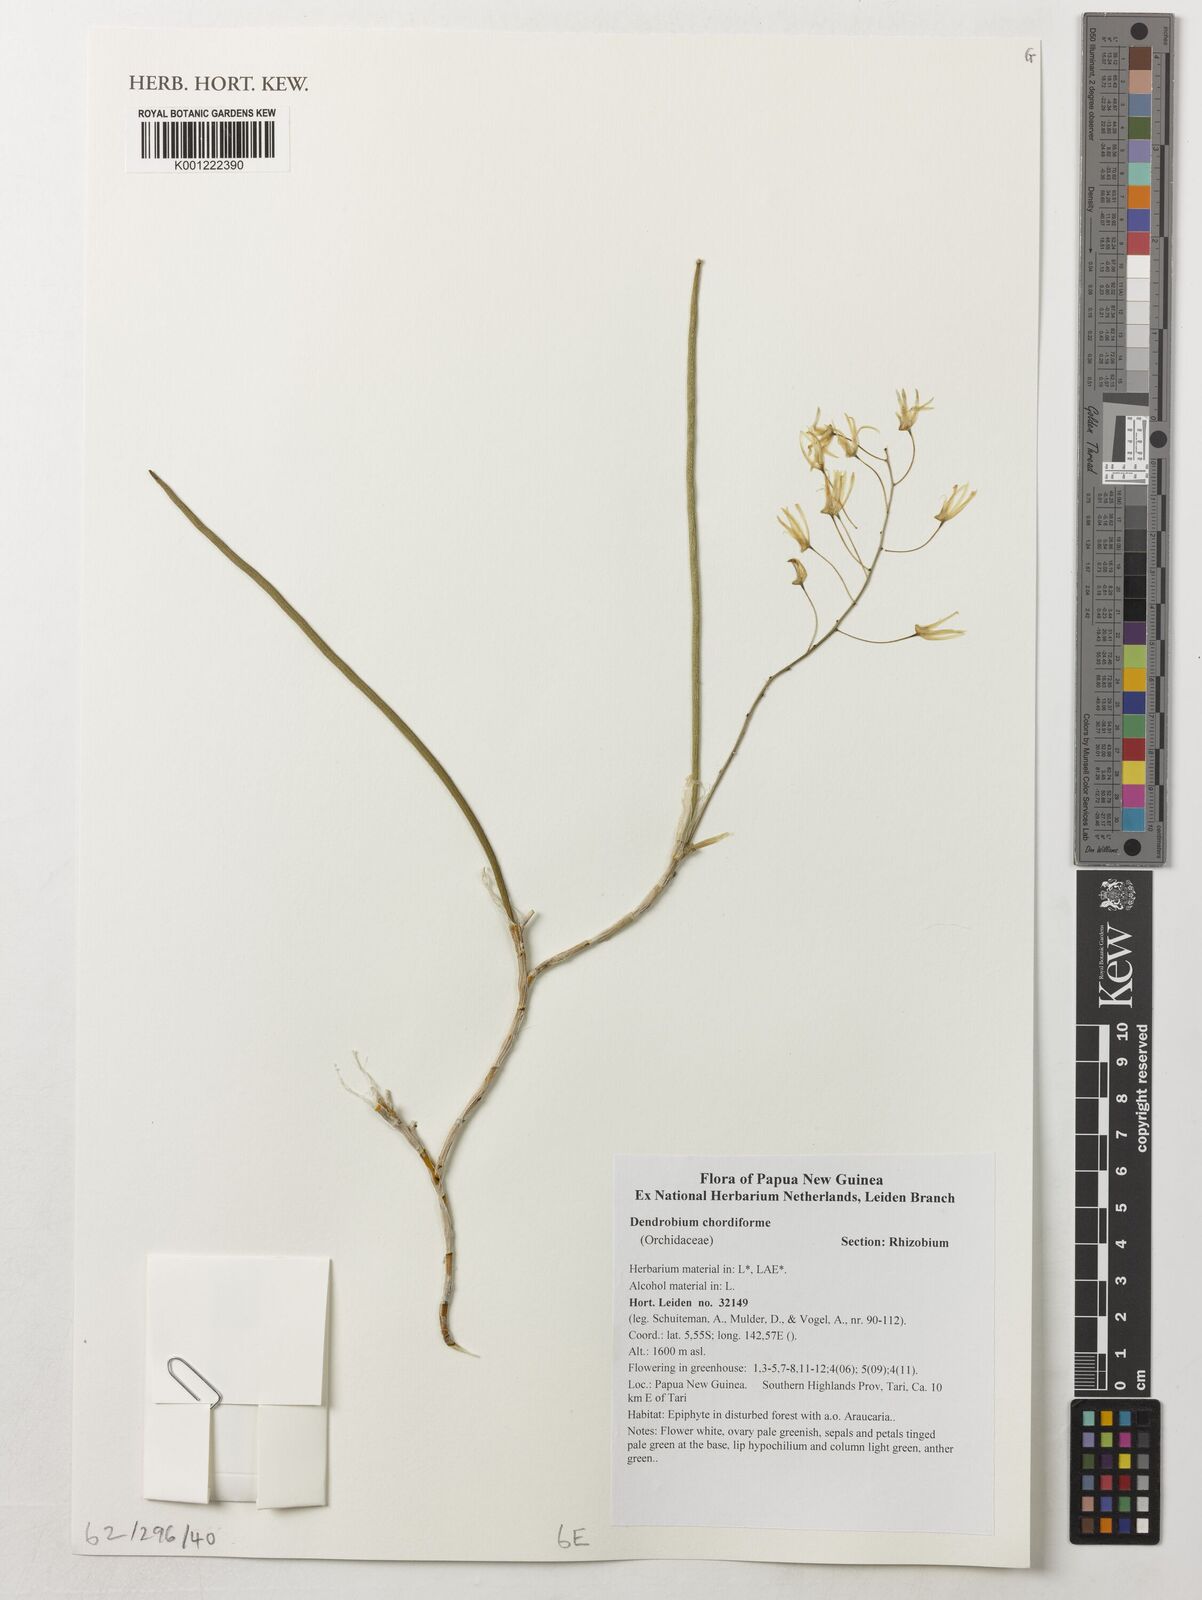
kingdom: Plantae
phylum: Tracheophyta
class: Liliopsida
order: Asparagales
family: Orchidaceae
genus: Dendrobium
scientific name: Dendrobium chordiforme
